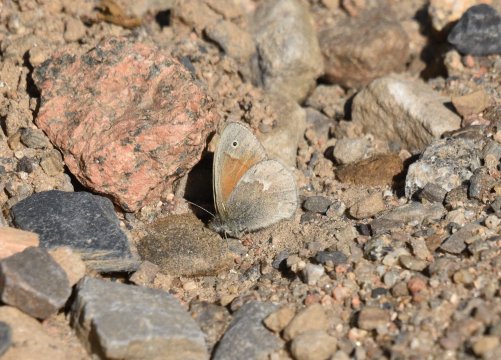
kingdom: Animalia
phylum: Arthropoda
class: Insecta
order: Lepidoptera
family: Nymphalidae
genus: Coenonympha
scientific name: Coenonympha tullia
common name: Large Heath
